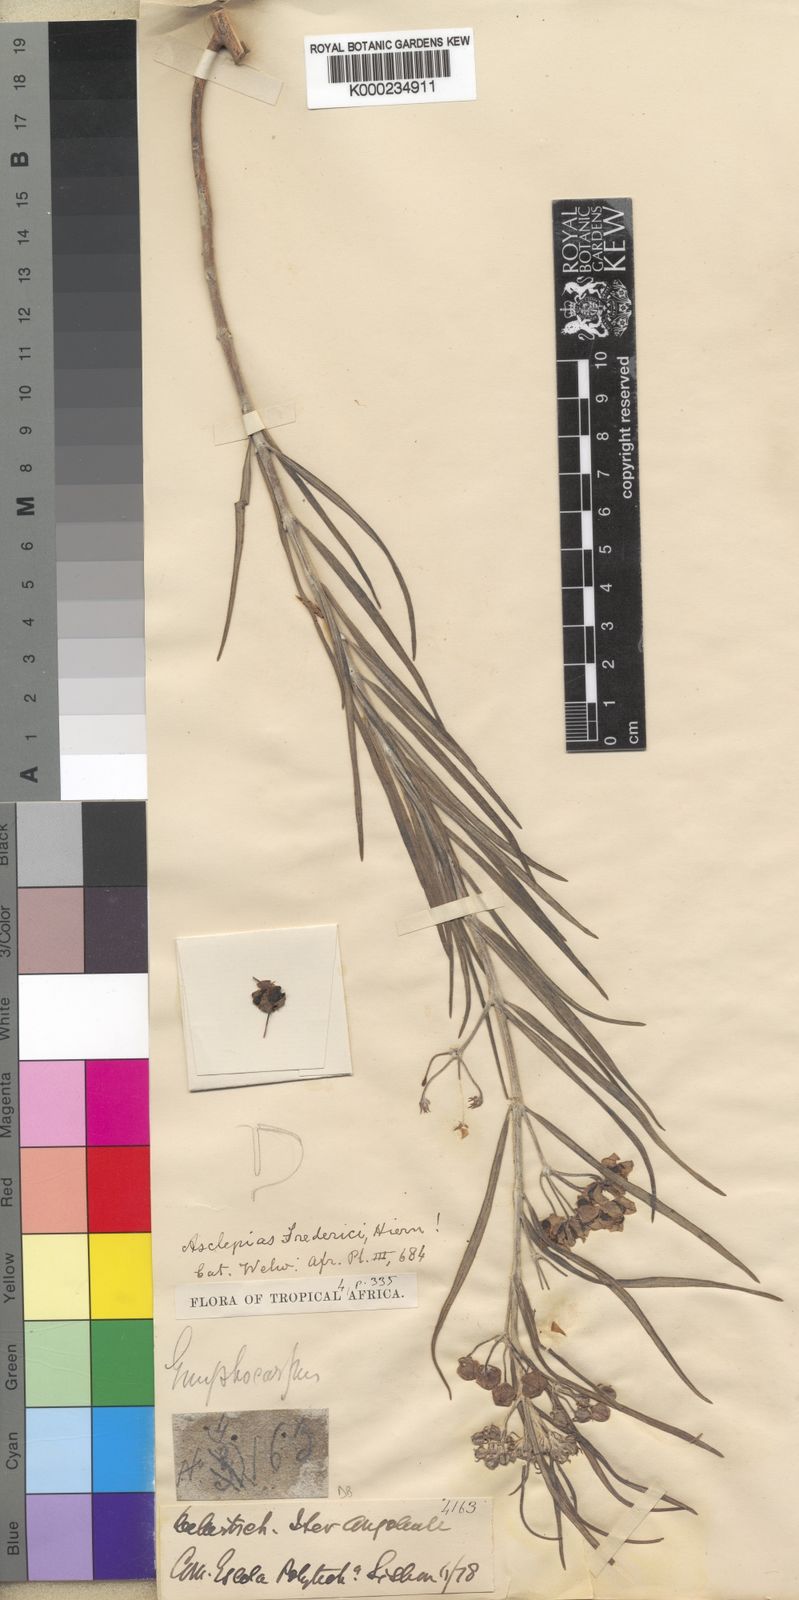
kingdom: Plantae
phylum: Tracheophyta
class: Magnoliopsida
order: Gentianales
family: Apocynaceae
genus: Gomphocarpus
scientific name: Gomphocarpus tomentosus
